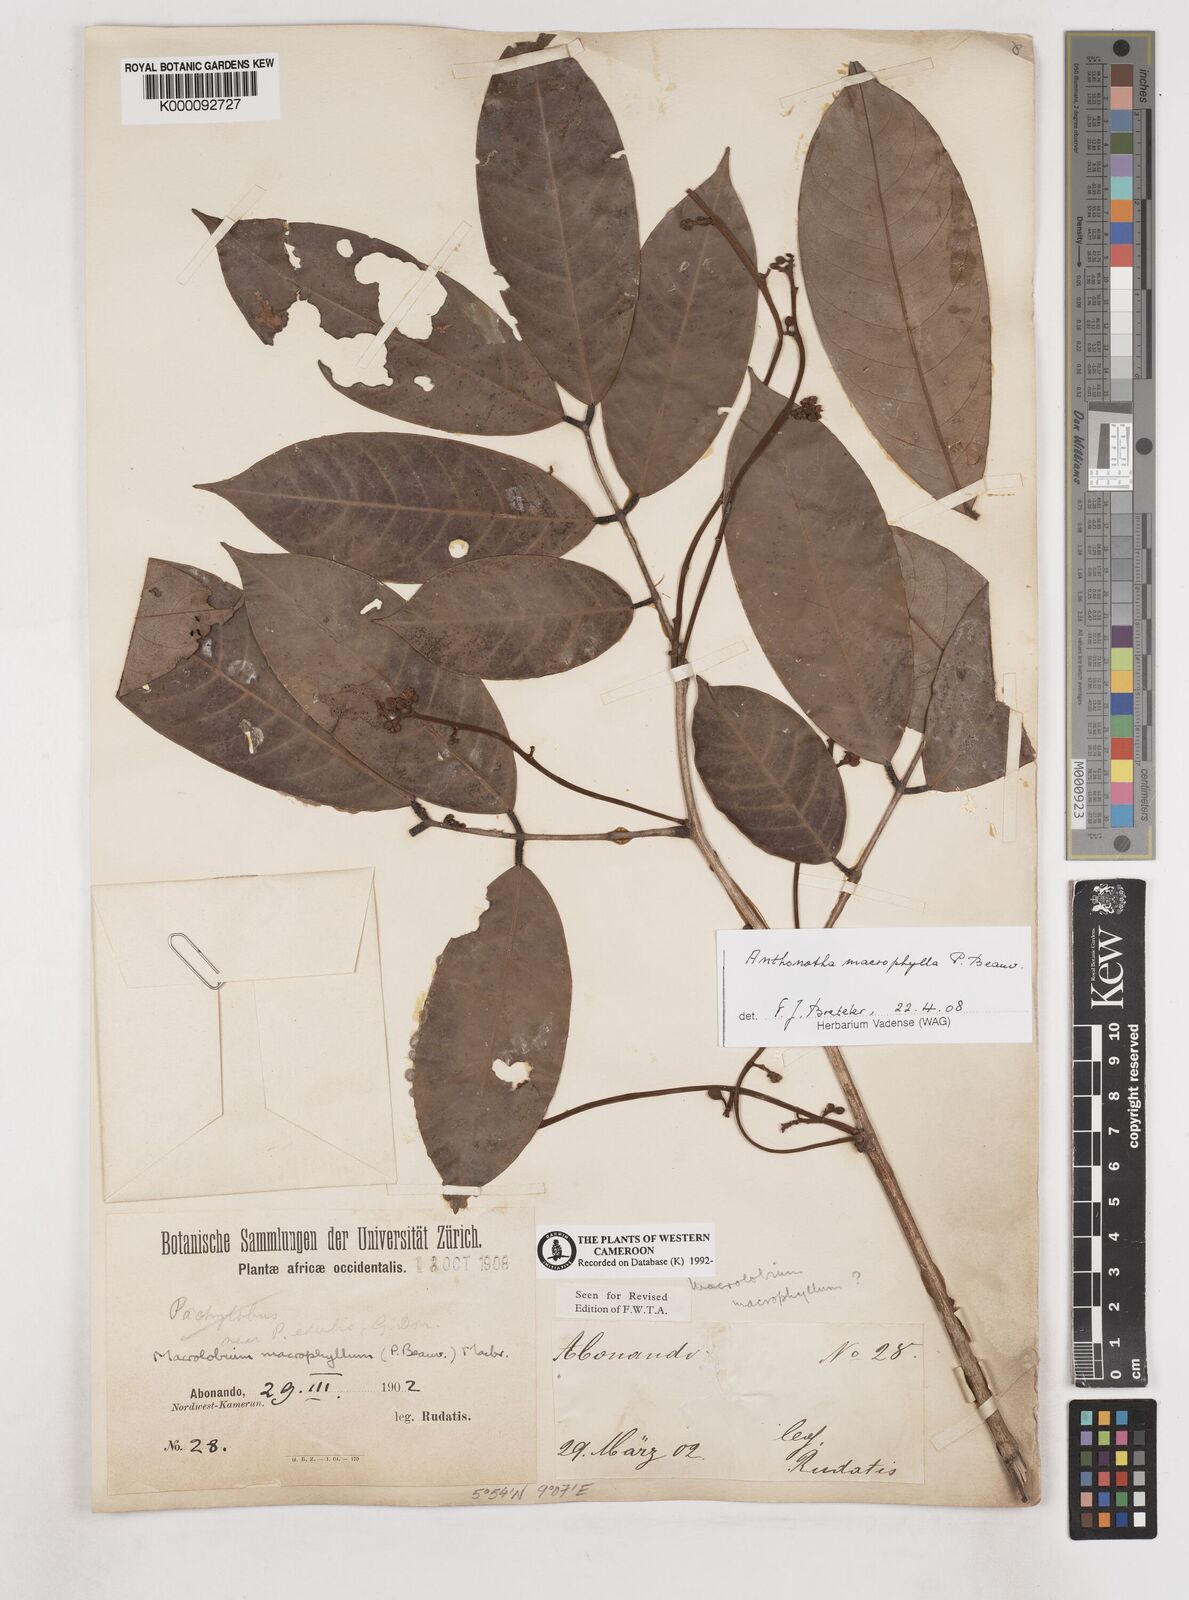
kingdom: Plantae
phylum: Tracheophyta
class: Magnoliopsida
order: Fabales
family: Fabaceae
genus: Anthonotha
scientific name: Anthonotha macrophylla
